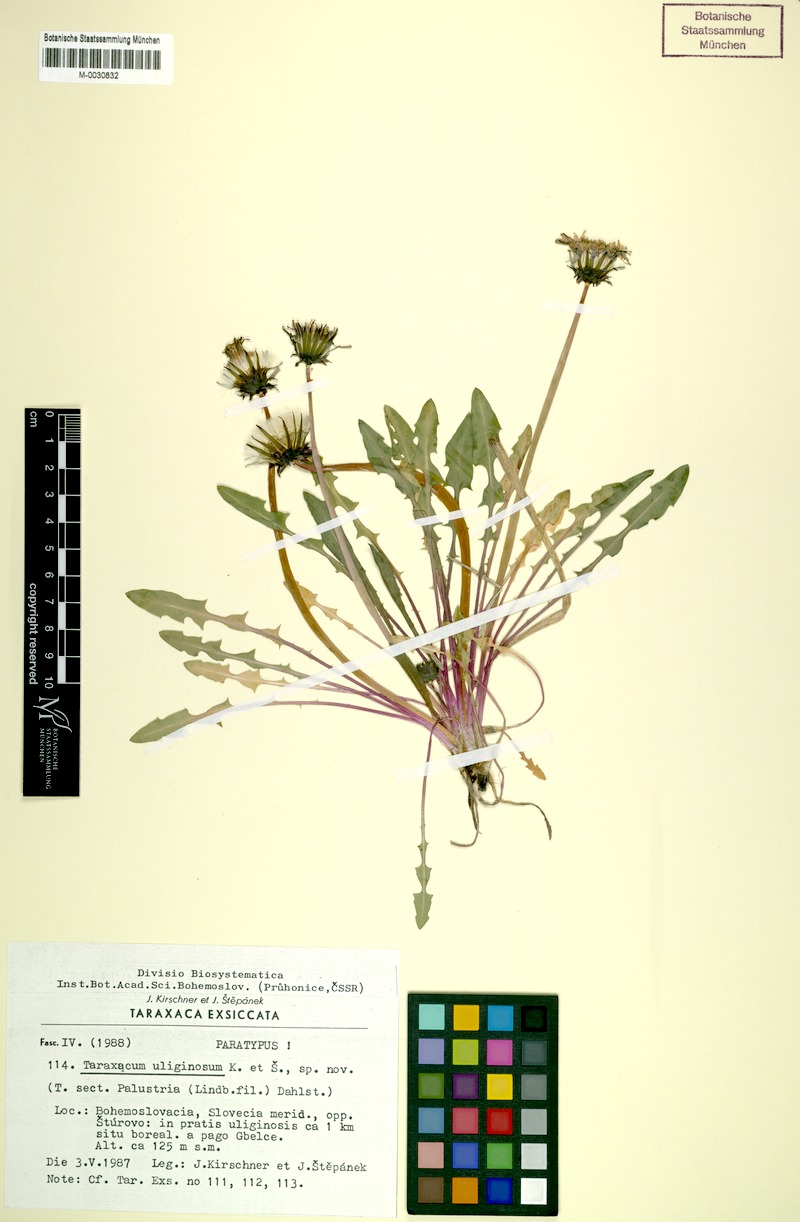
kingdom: Plantae
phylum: Tracheophyta
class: Magnoliopsida
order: Asterales
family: Asteraceae
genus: Taraxacum
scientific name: Taraxacum uliginosum
